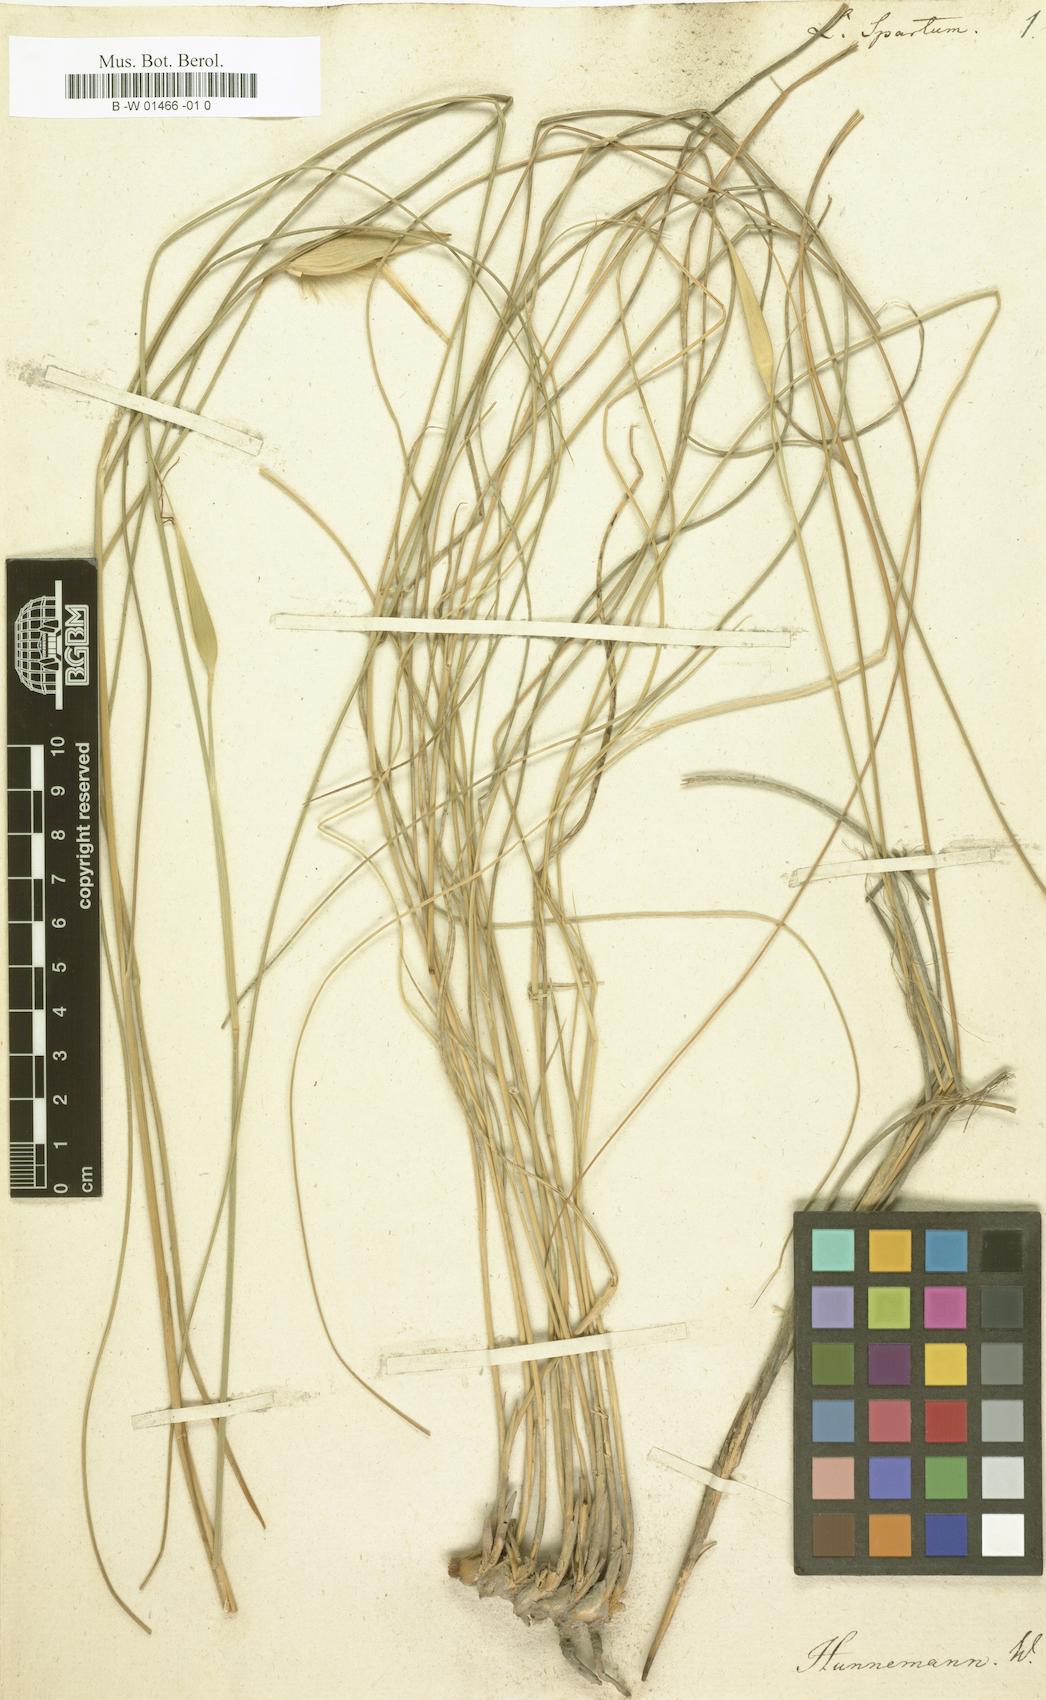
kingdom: Plantae
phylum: Tracheophyta
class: Liliopsida
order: Poales
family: Poaceae
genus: Lygeum
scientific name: Lygeum spartum
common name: Albardine
